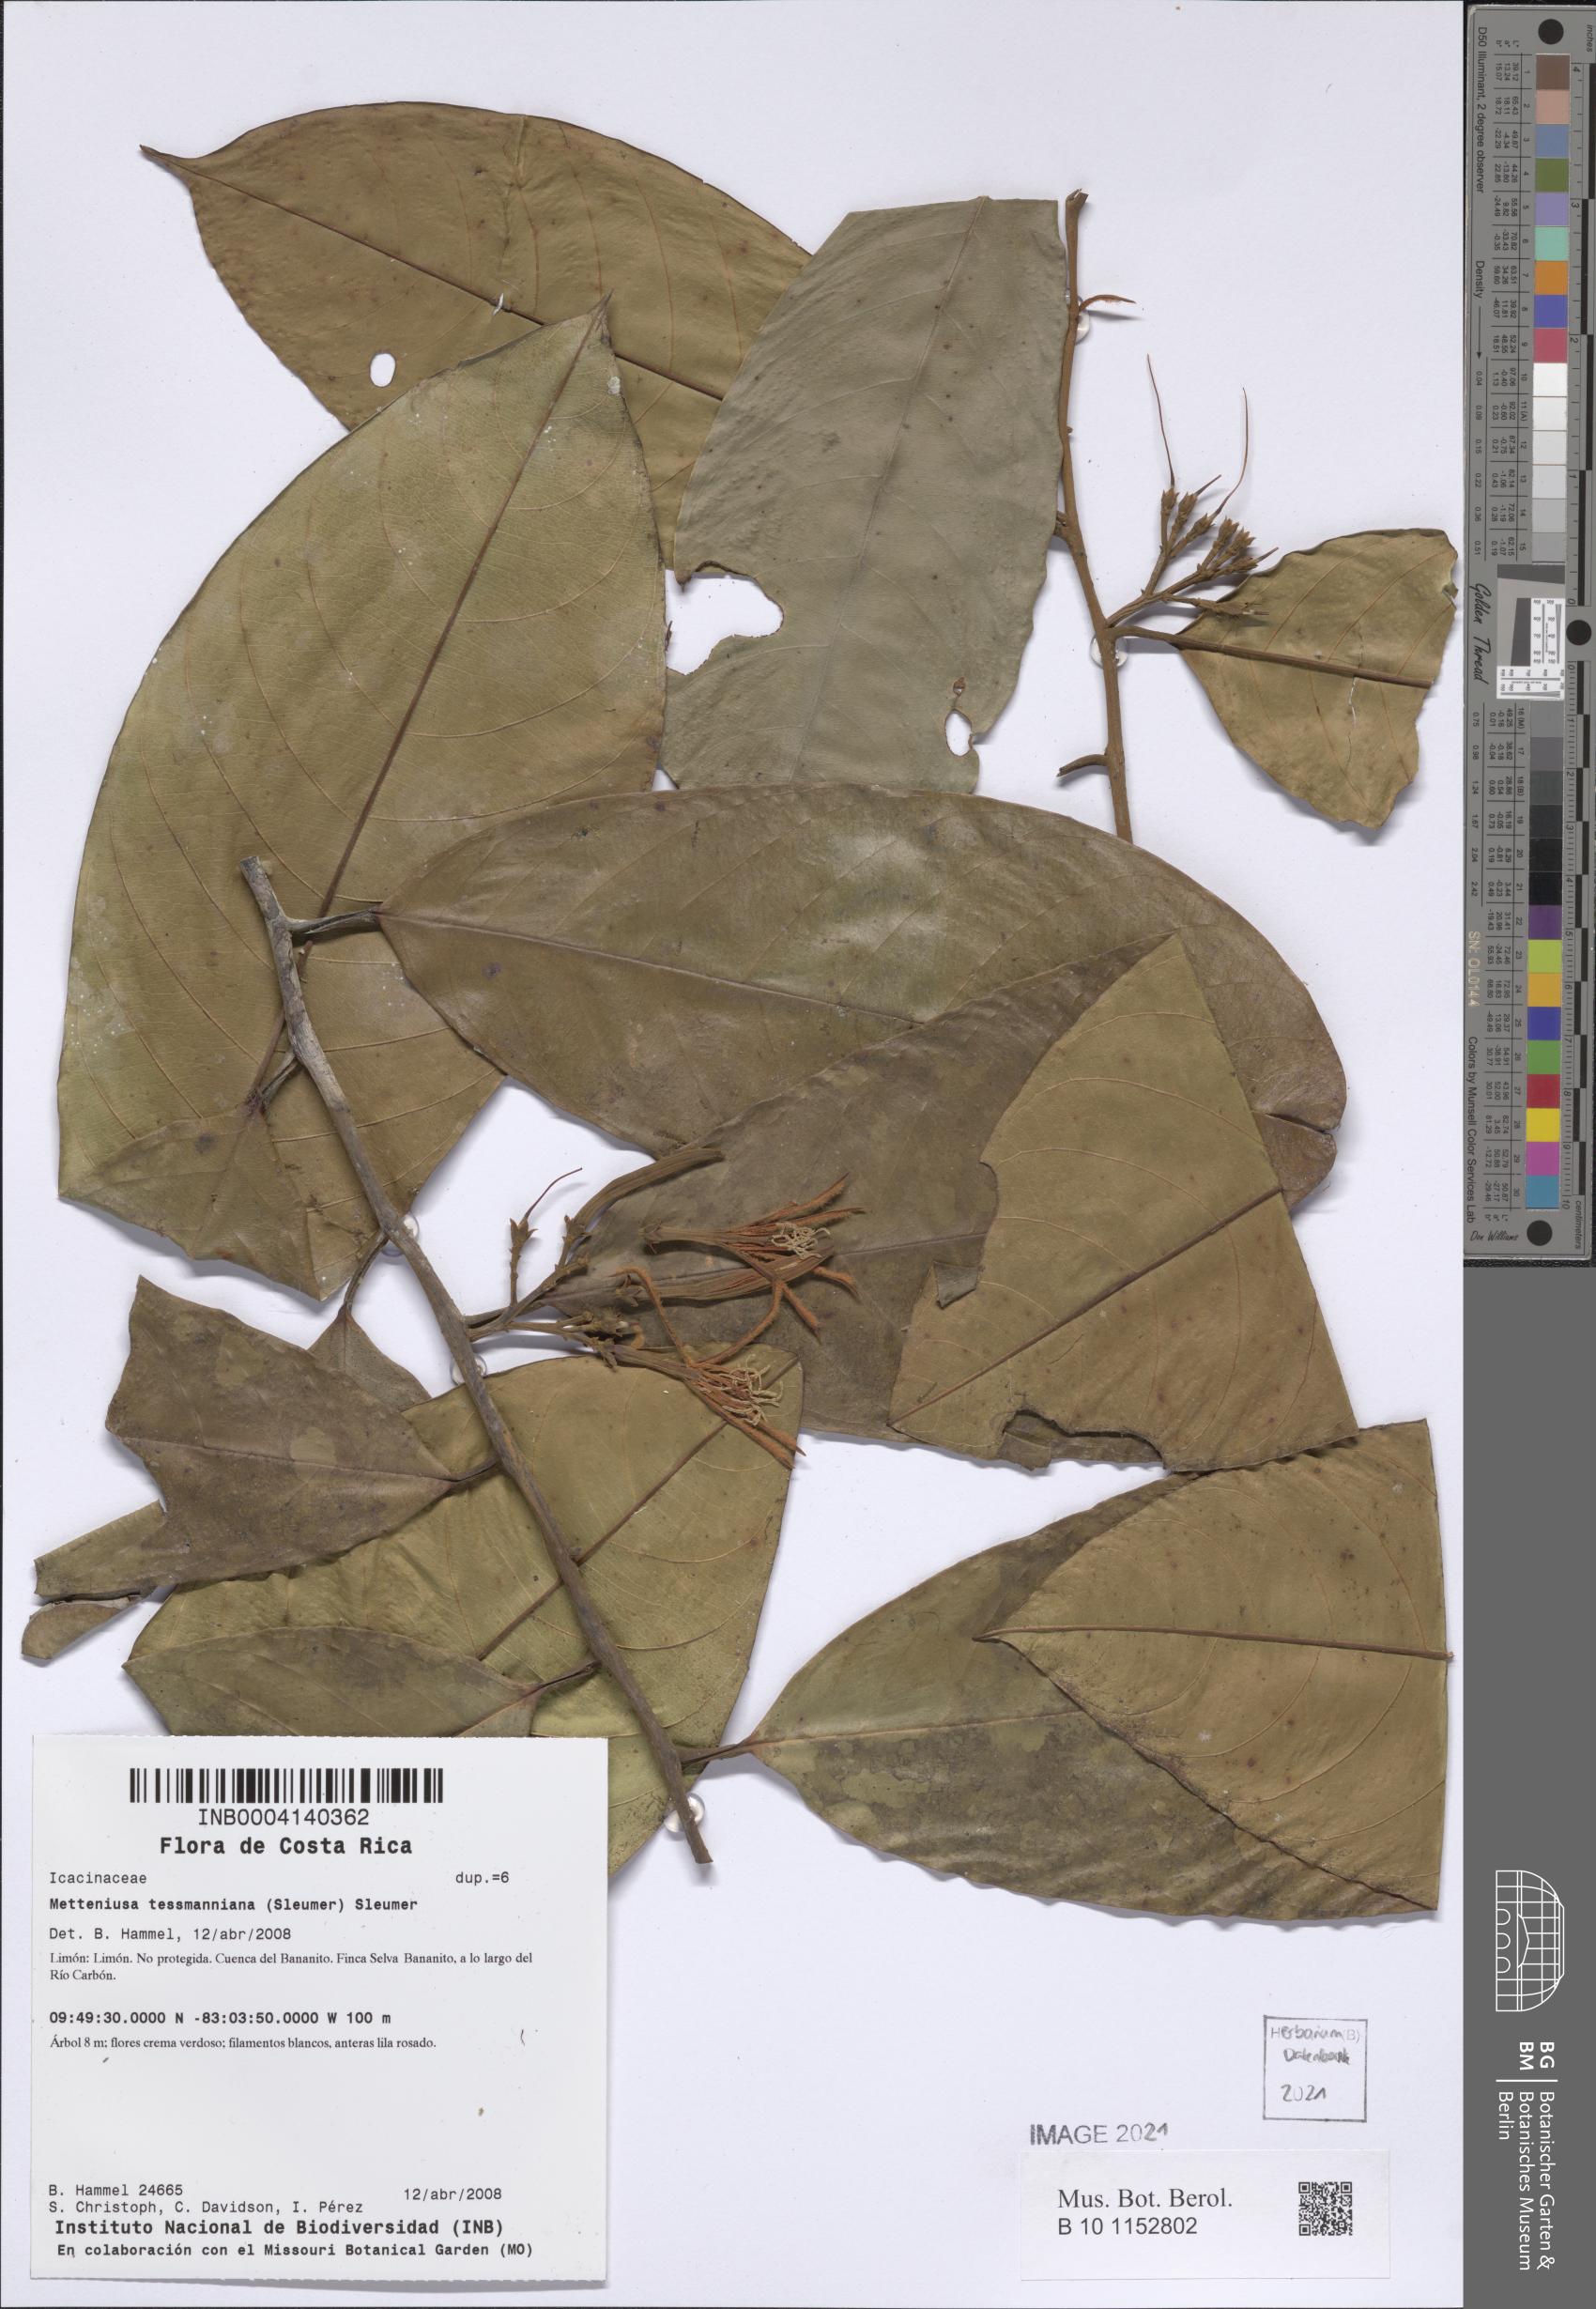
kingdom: Plantae
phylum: Tracheophyta
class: Magnoliopsida
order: Metteniusales
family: Metteniusaceae
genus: Metteniusa
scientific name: Metteniusa tessmanniana
